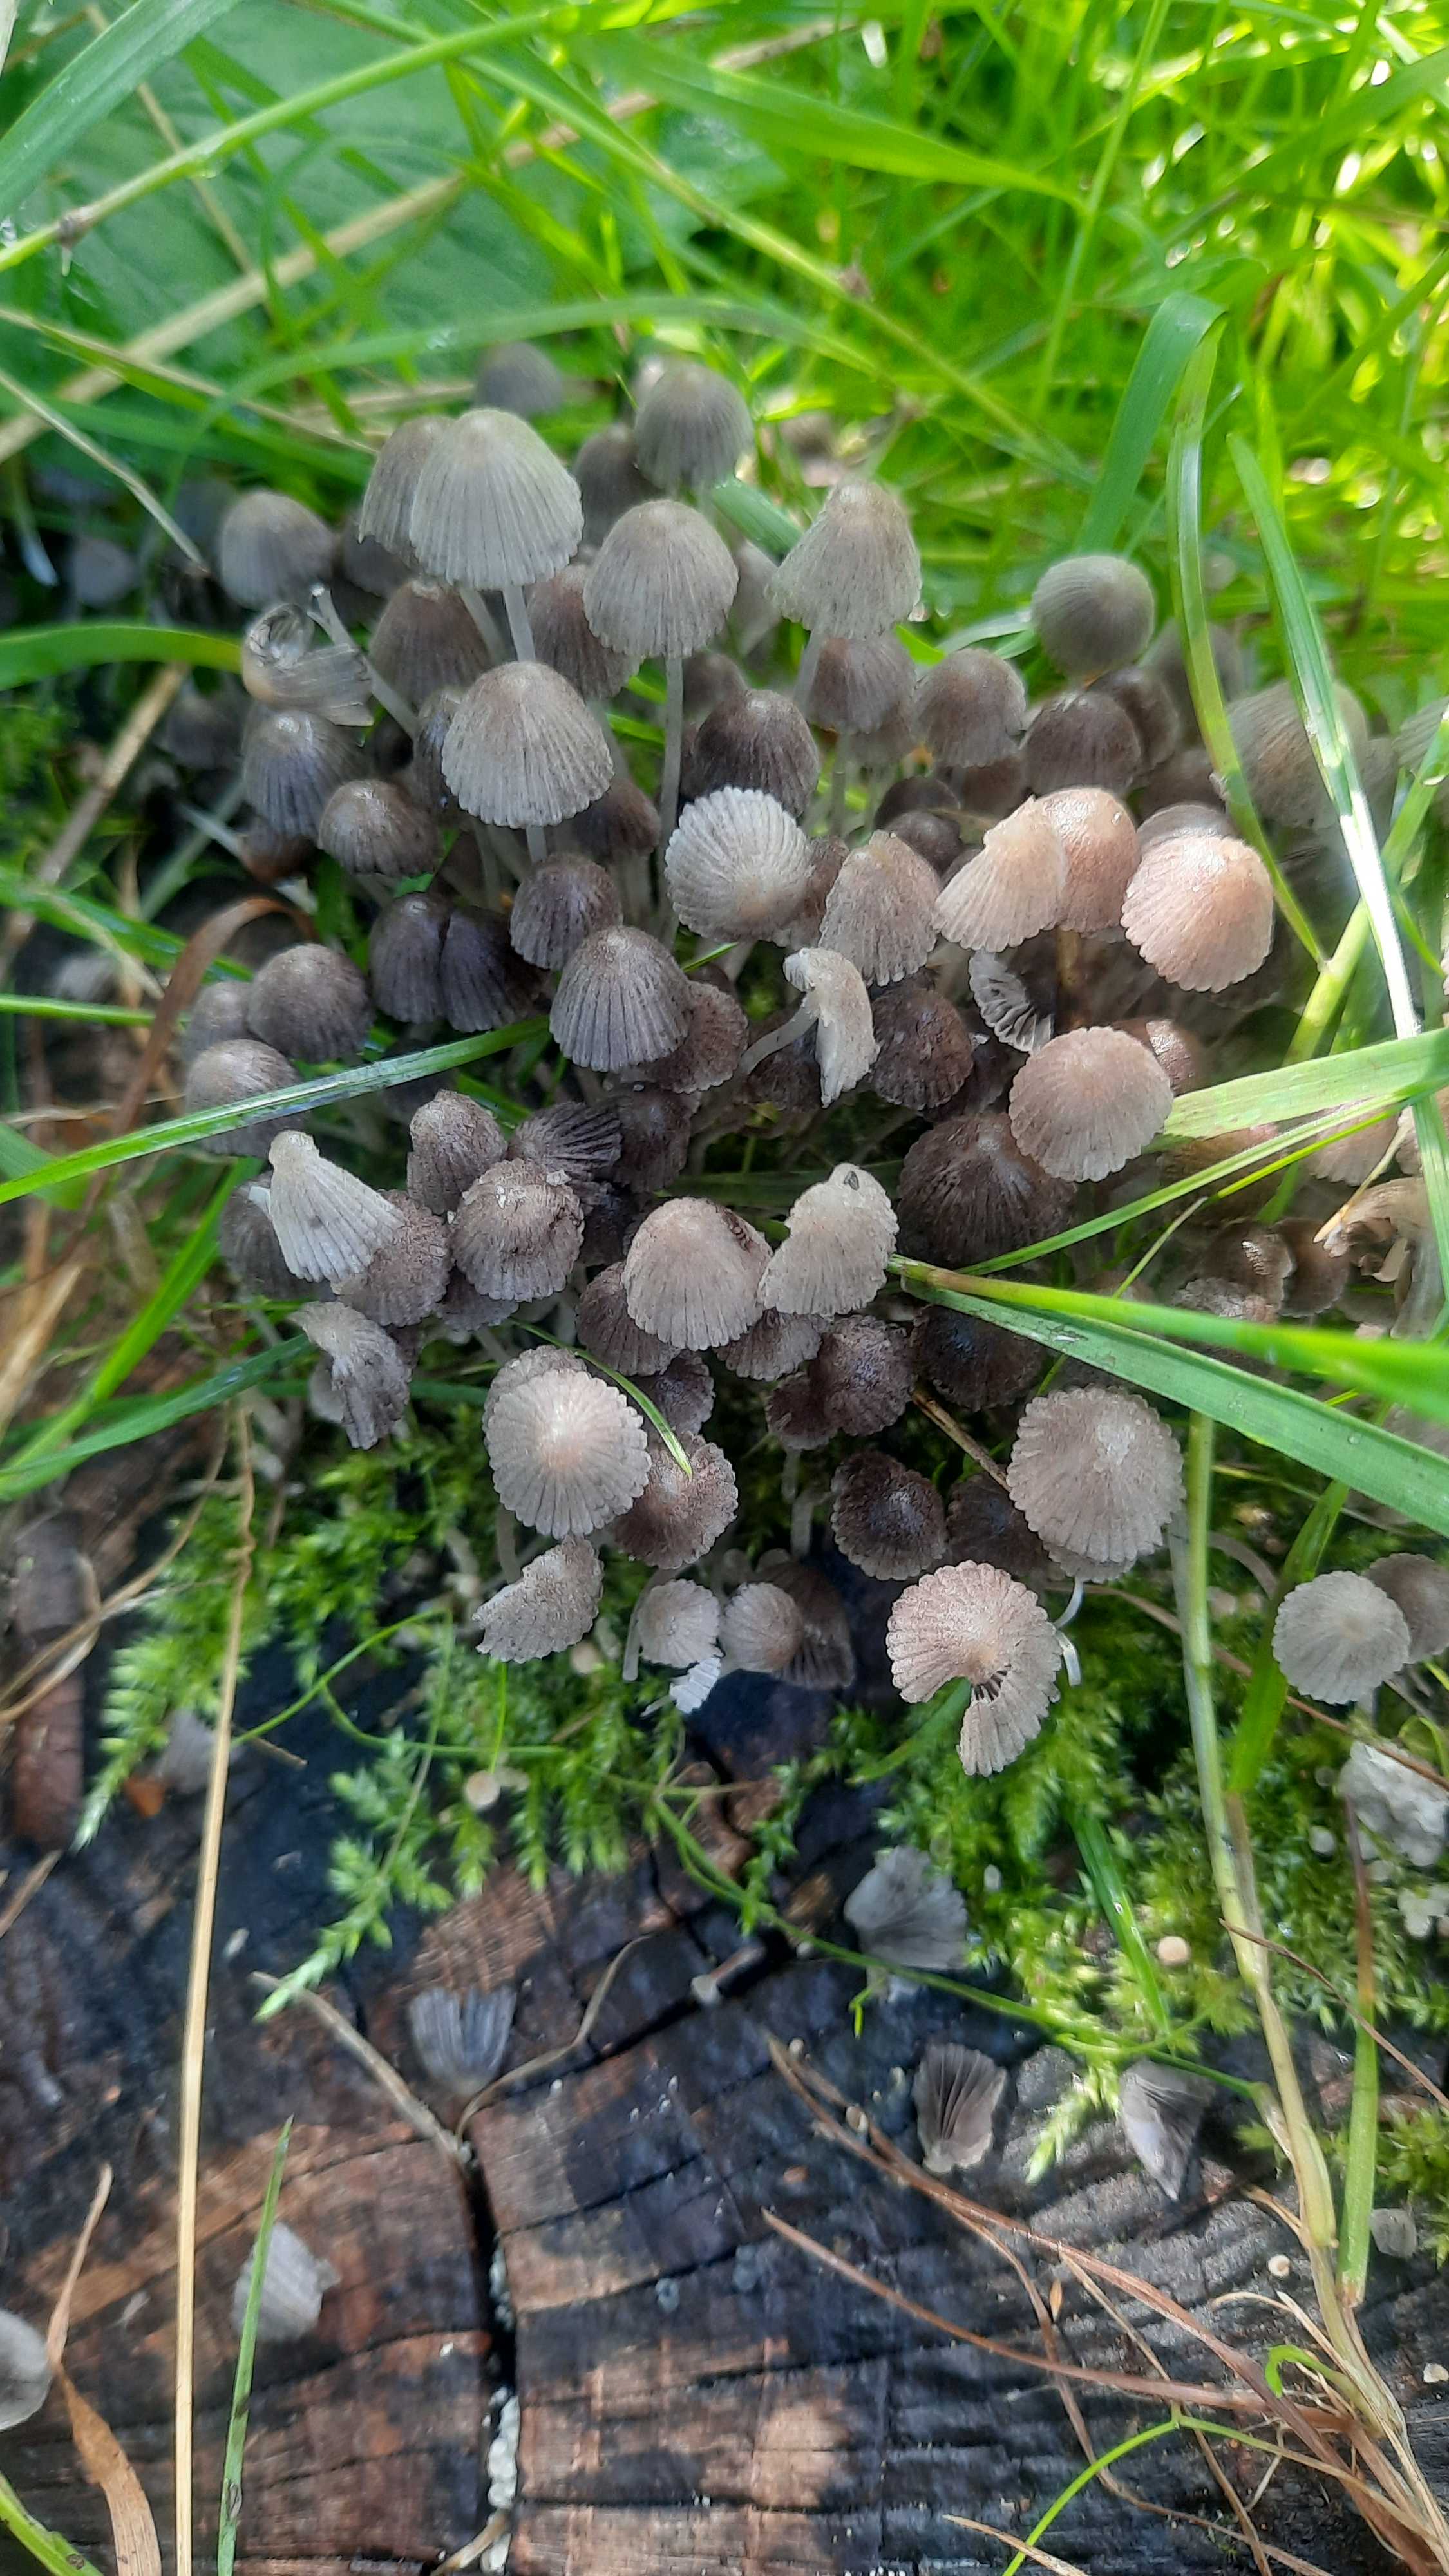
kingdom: Fungi
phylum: Basidiomycota
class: Agaricomycetes
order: Agaricales
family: Psathyrellaceae
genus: Coprinellus
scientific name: Coprinellus disseminatus
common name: bredsået blækhat
